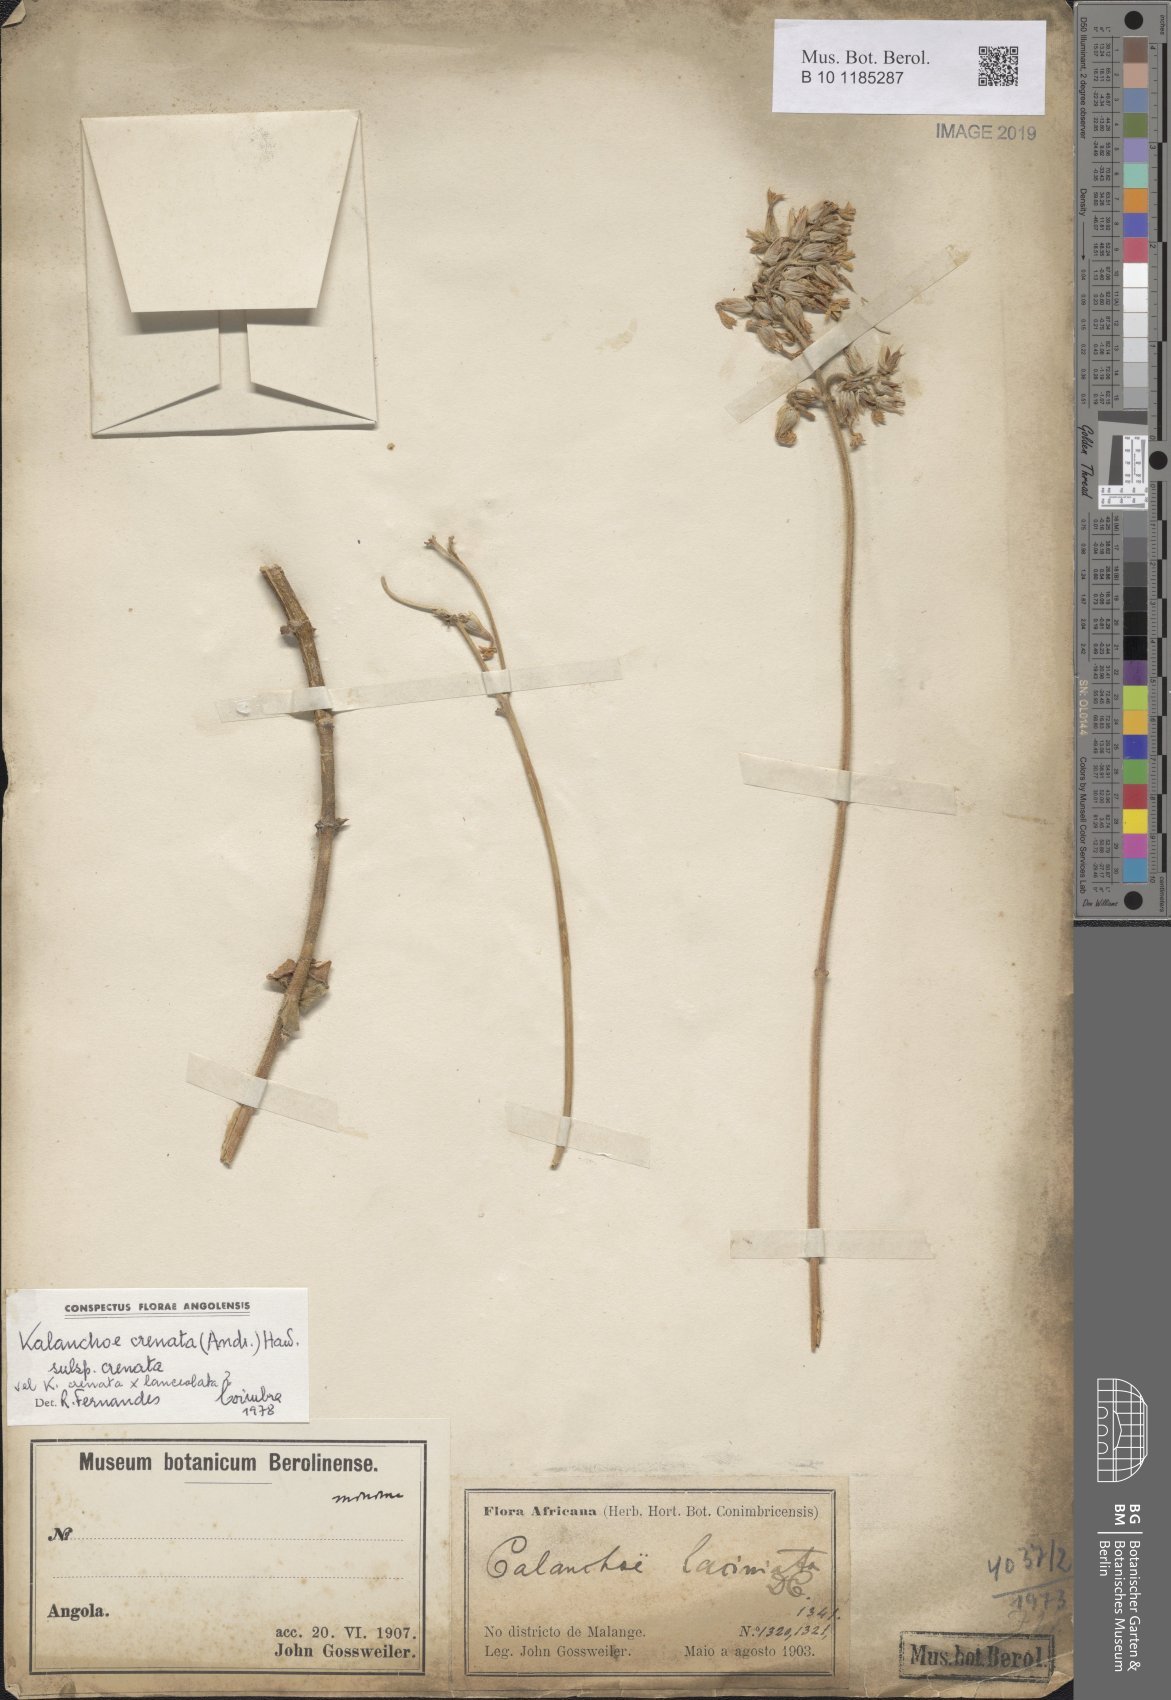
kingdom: Plantae
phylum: Tracheophyta
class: Magnoliopsida
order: Saxifragales
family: Crassulaceae
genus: Kalanchoe
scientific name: Kalanchoe crenata
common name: Neverdie
